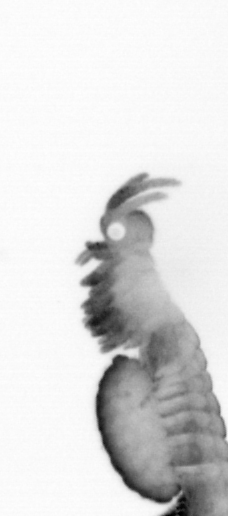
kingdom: Animalia
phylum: Annelida
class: Polychaeta
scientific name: Polychaeta
